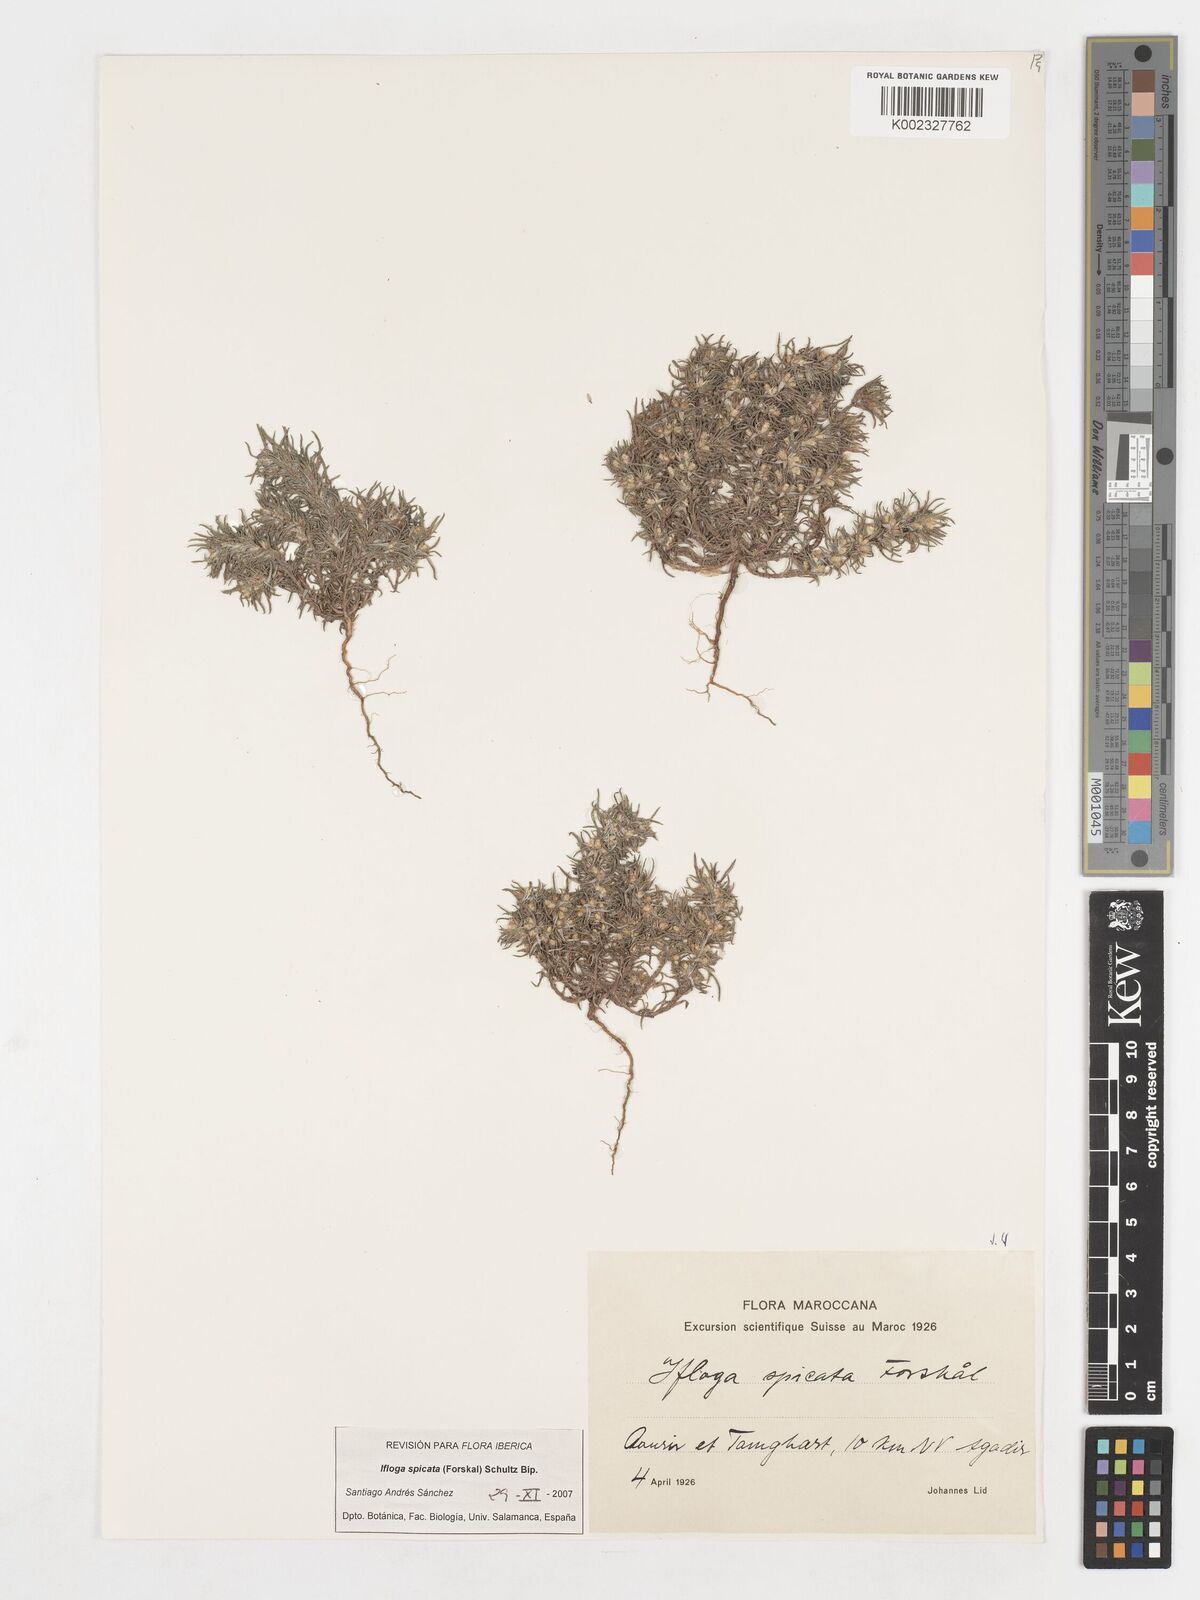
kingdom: Plantae
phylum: Tracheophyta
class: Magnoliopsida
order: Asterales
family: Asteraceae
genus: Ifloga
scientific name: Ifloga spicata
